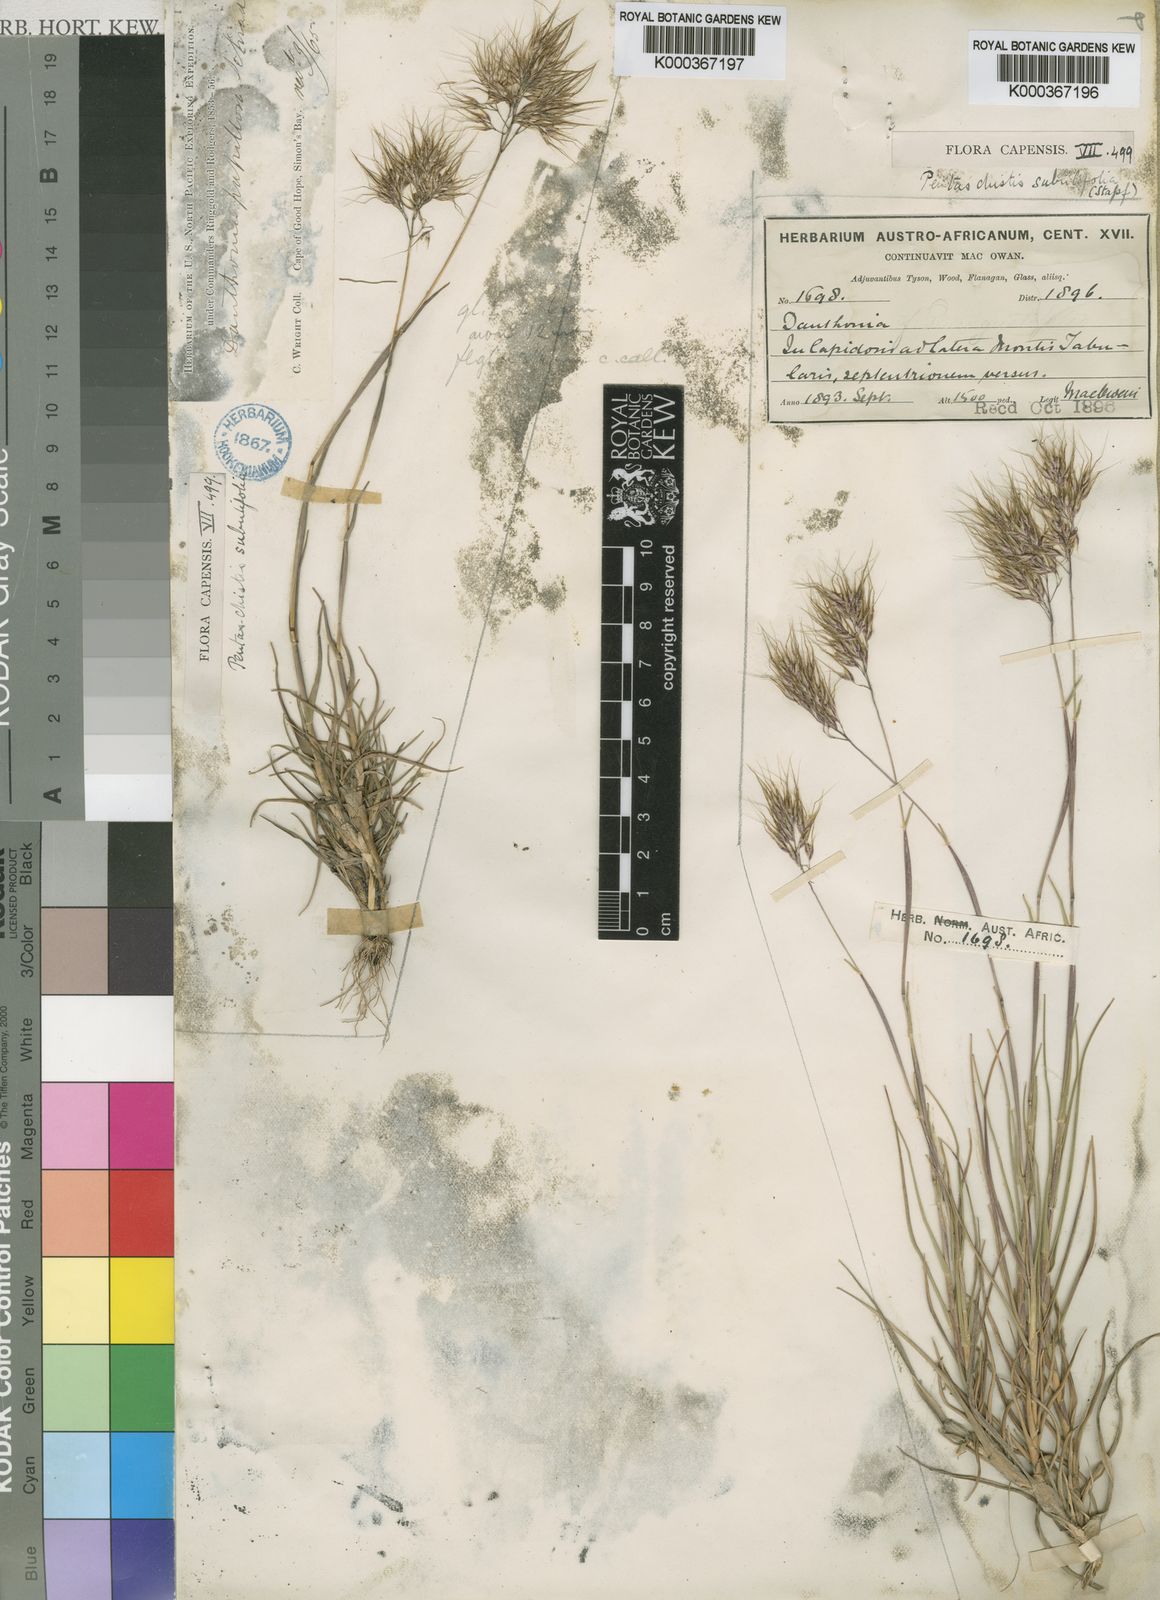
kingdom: Plantae
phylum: Tracheophyta
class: Liliopsida
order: Poales
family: Poaceae
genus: Pentameris
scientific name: Pentameris scabra
